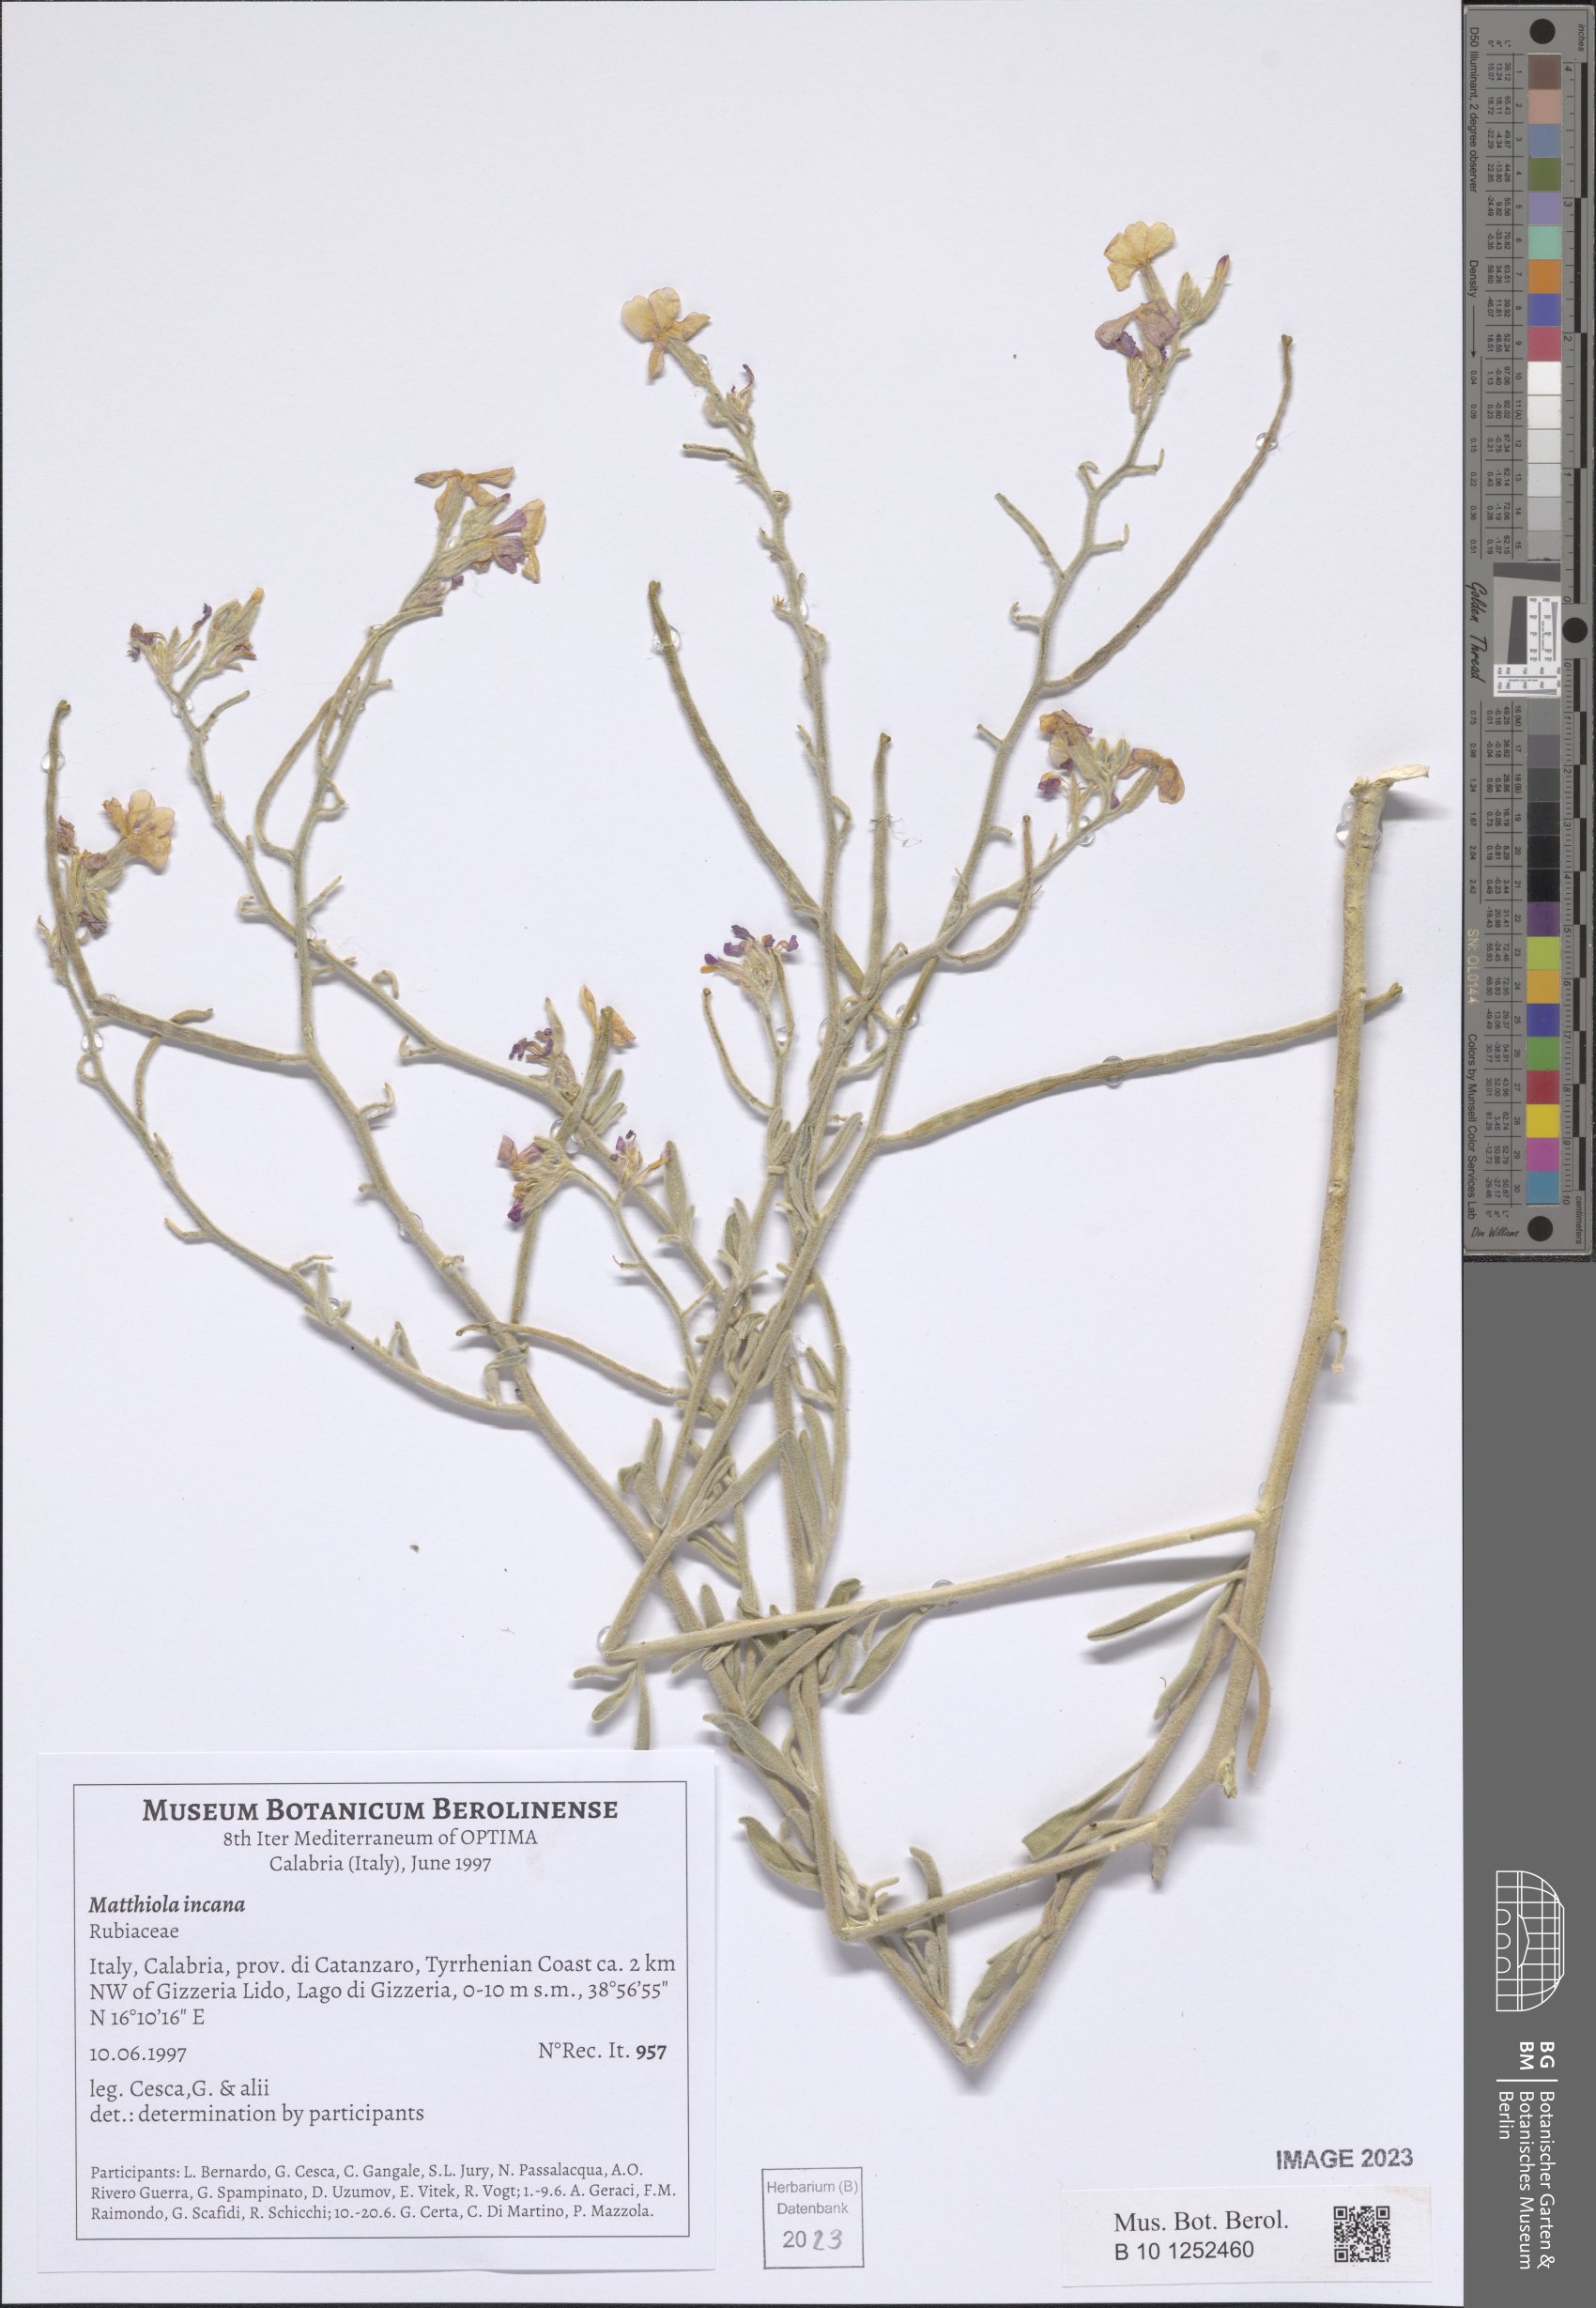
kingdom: Plantae
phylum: Tracheophyta
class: Magnoliopsida
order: Brassicales
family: Brassicaceae
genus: Matthiola
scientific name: Matthiola incana
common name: Hoary stock
